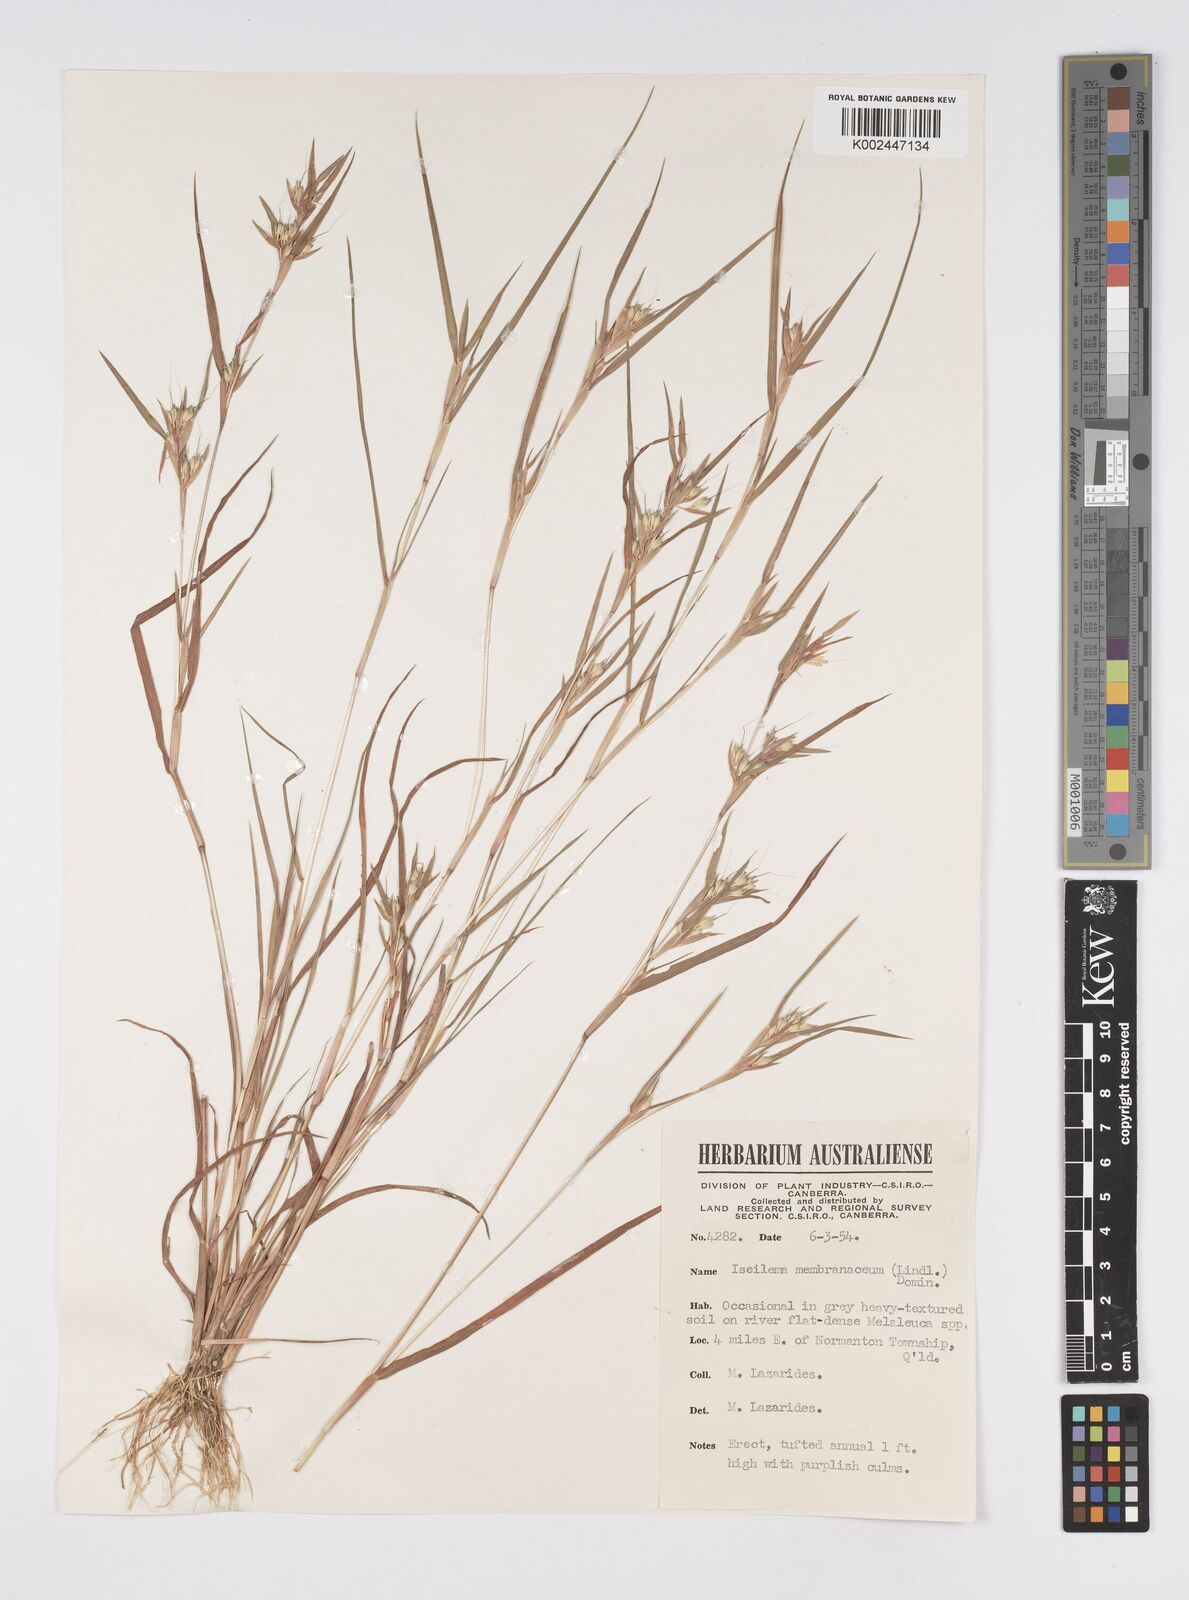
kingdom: Plantae
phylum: Tracheophyta
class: Liliopsida
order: Poales
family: Poaceae
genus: Iseilema
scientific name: Iseilema membranaceum
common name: Small flinders grass
